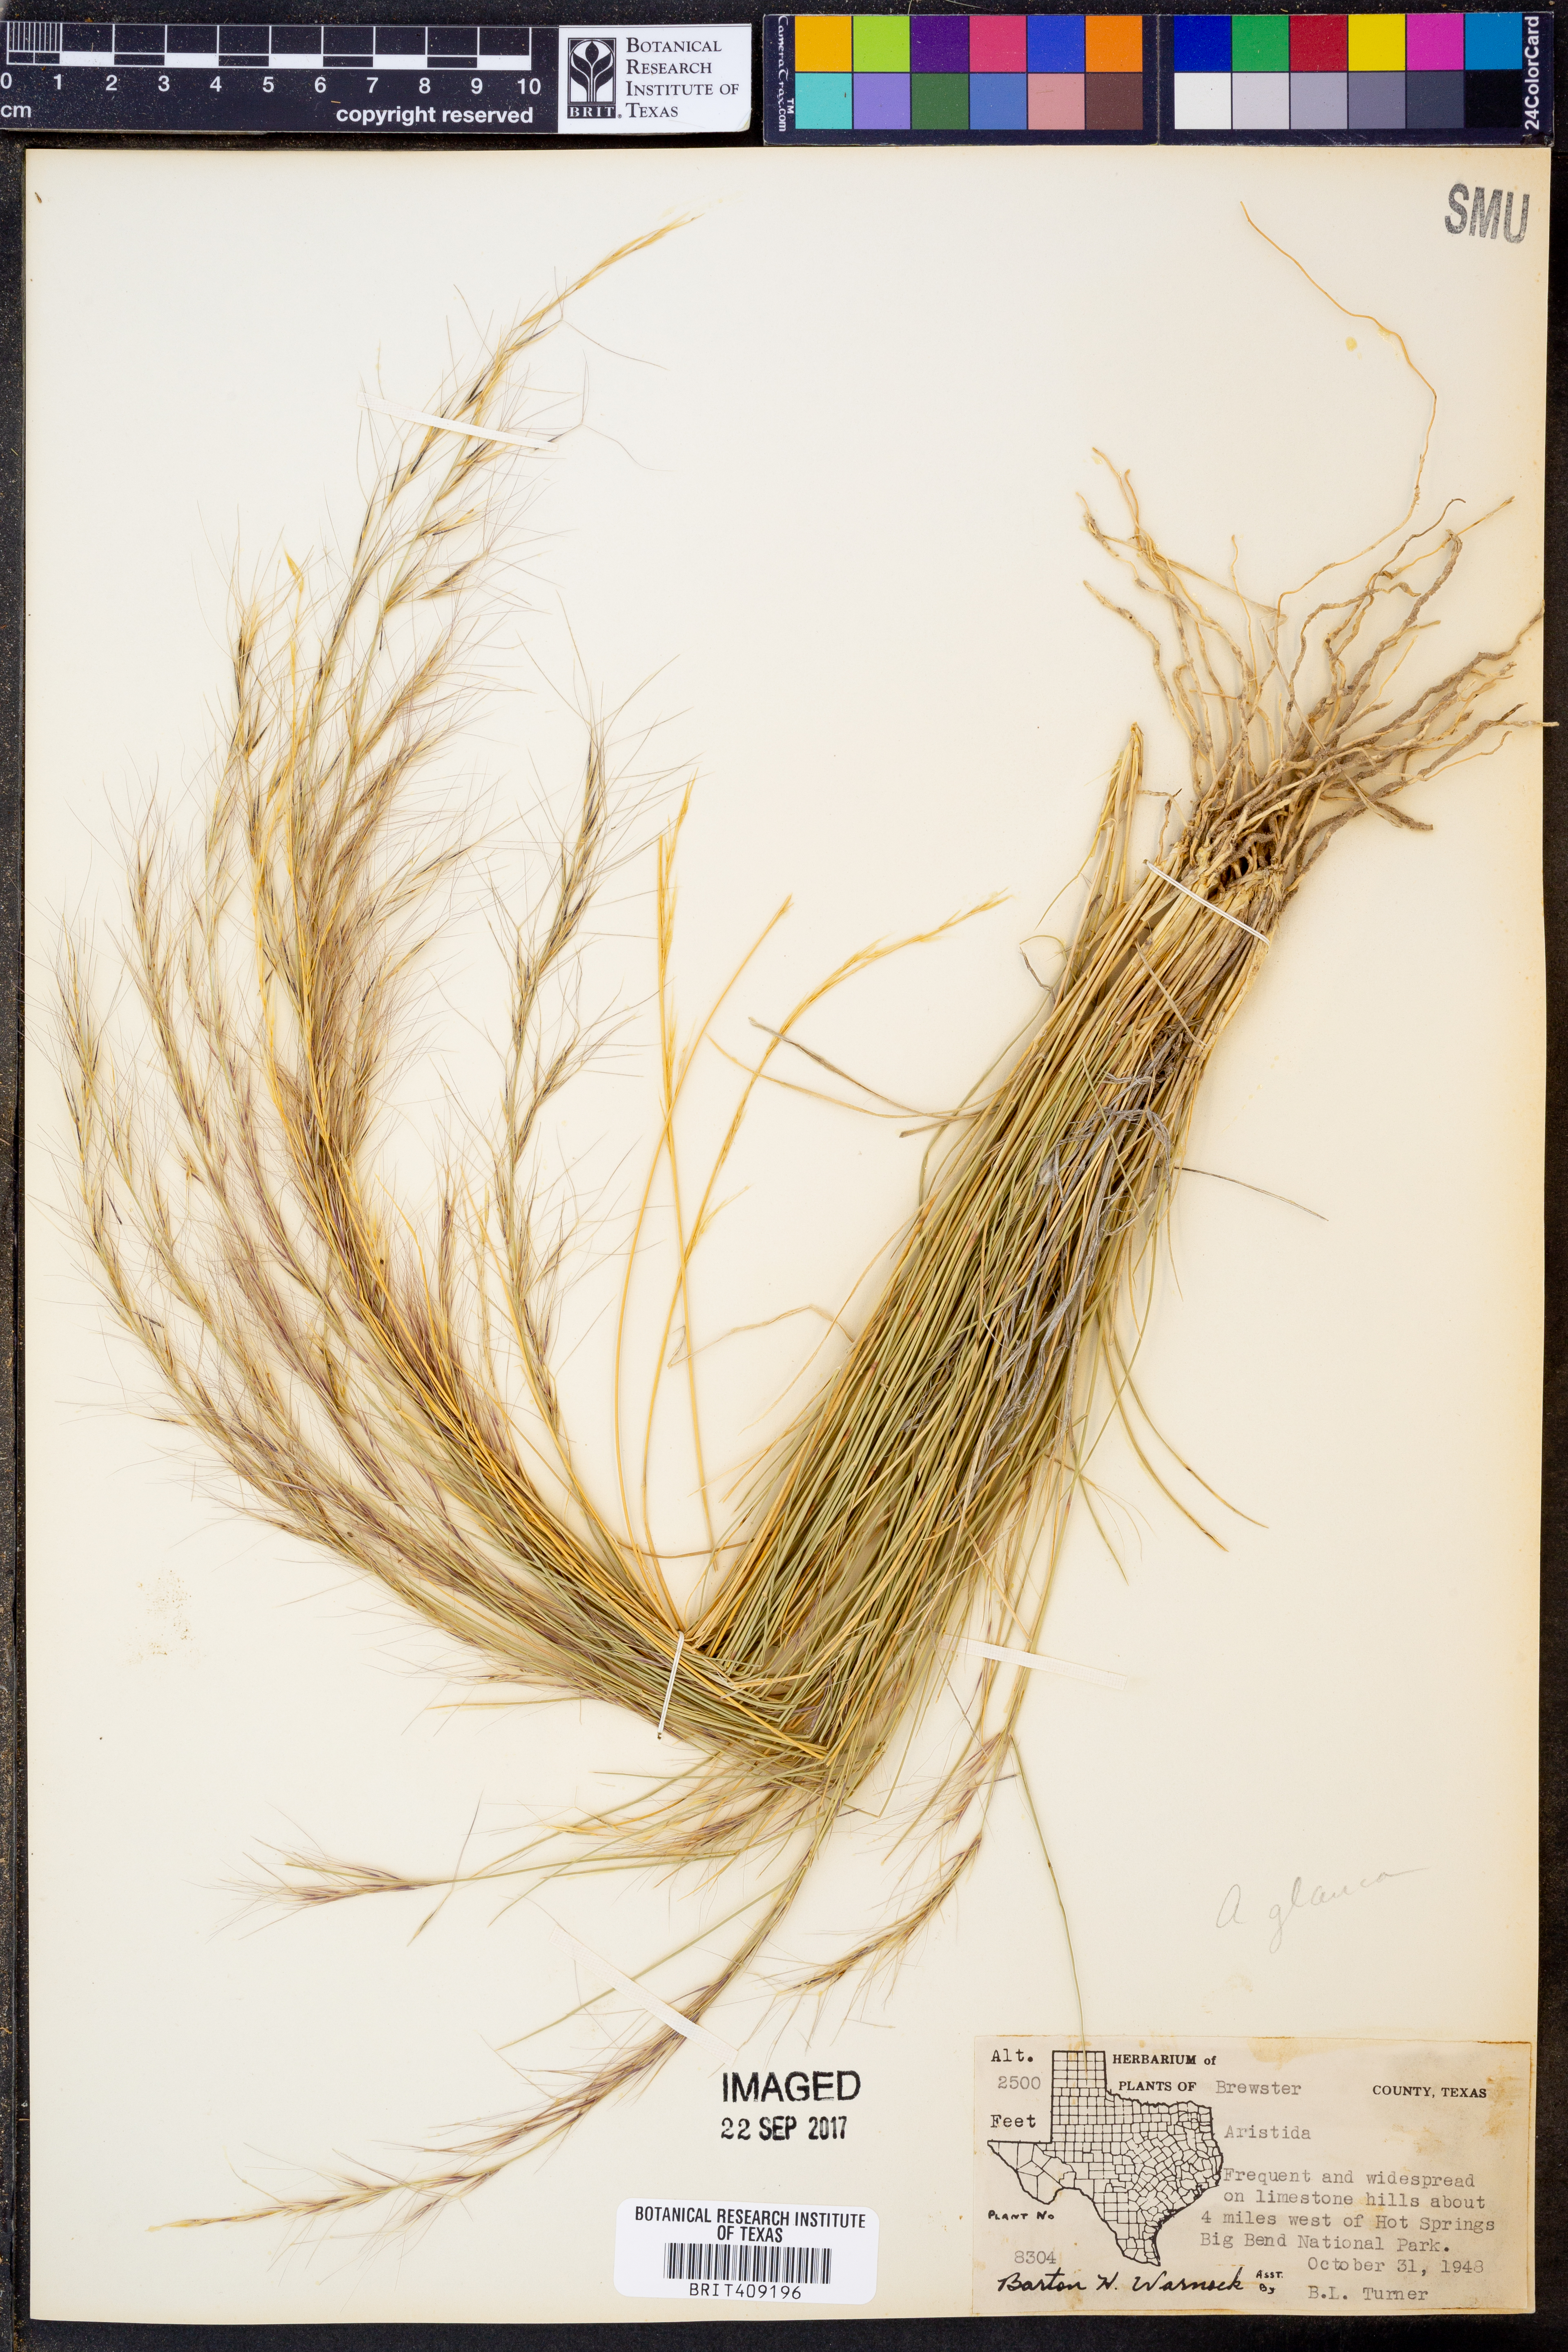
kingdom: Plantae
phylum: Tracheophyta
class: Liliopsida
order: Poales
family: Poaceae
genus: Aristida
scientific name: Aristida
